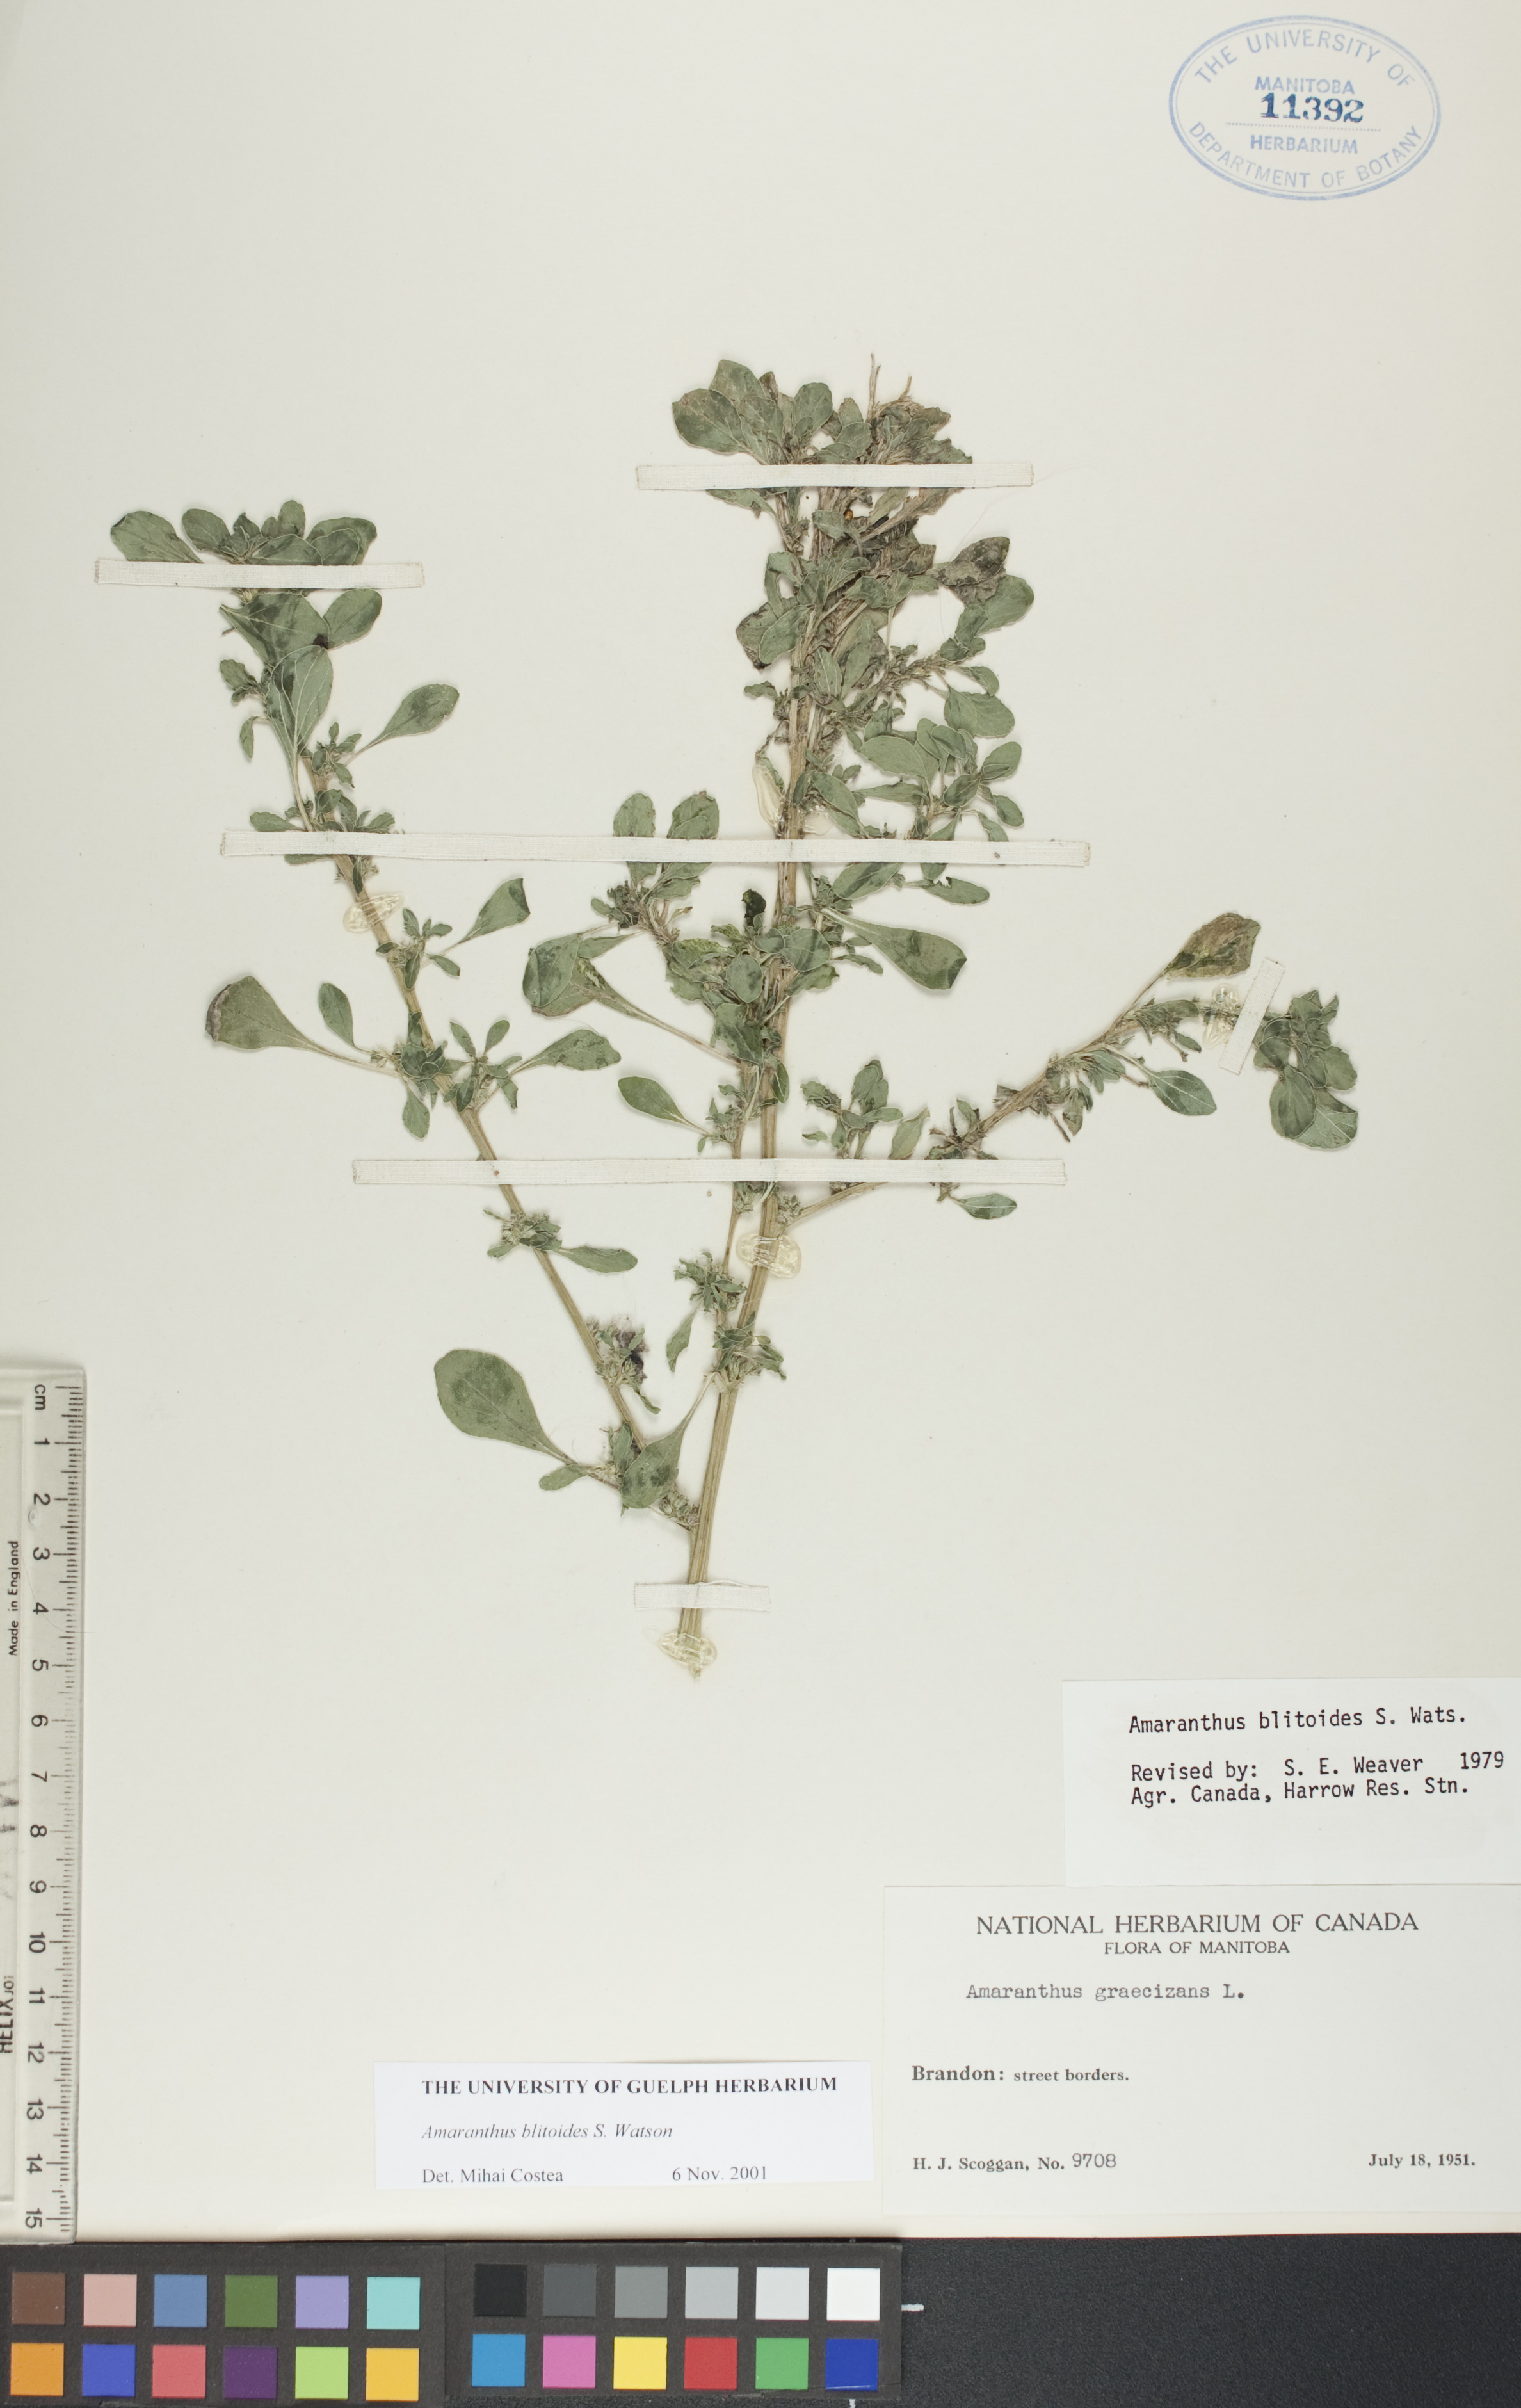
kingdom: Plantae
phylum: Tracheophyta
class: Magnoliopsida
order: Caryophyllales
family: Amaranthaceae
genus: Amaranthus
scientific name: Amaranthus blitoides
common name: Prostrate pigweed
